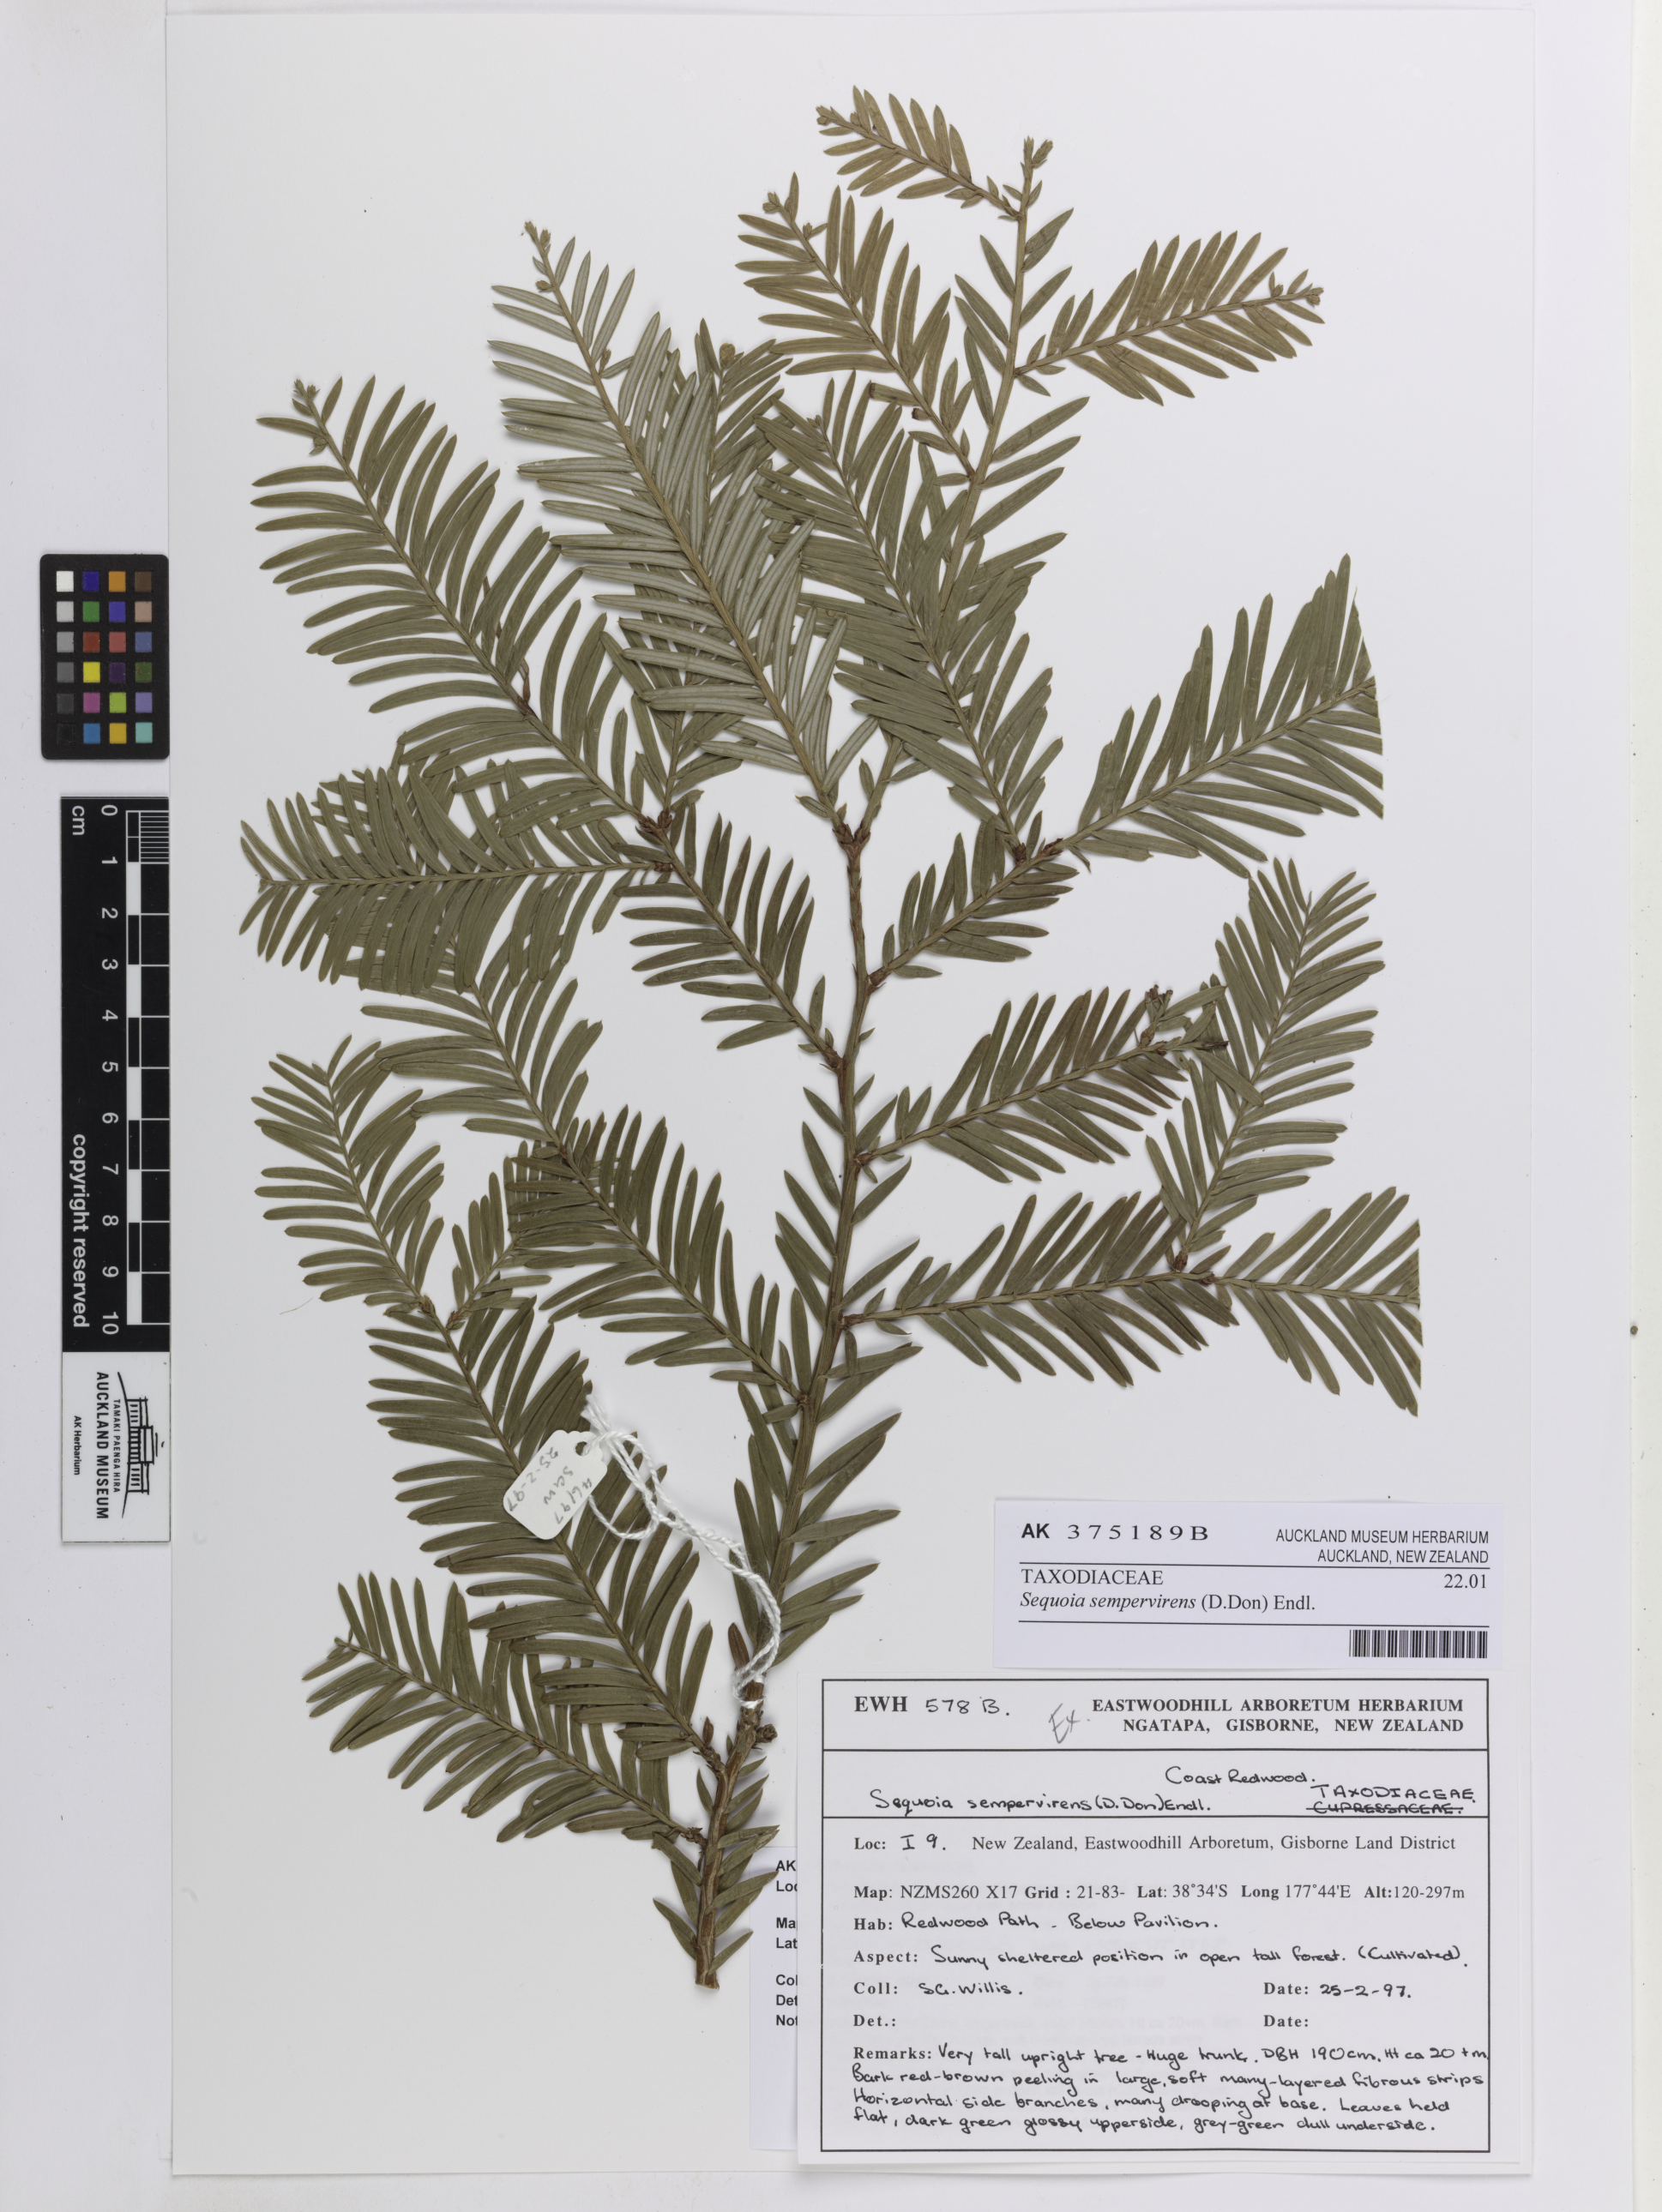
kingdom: Plantae
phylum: Tracheophyta
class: Pinopsida
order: Pinales
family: Cupressaceae
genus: Sequoia
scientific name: Sequoia sempervirens
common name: Coast redwood
